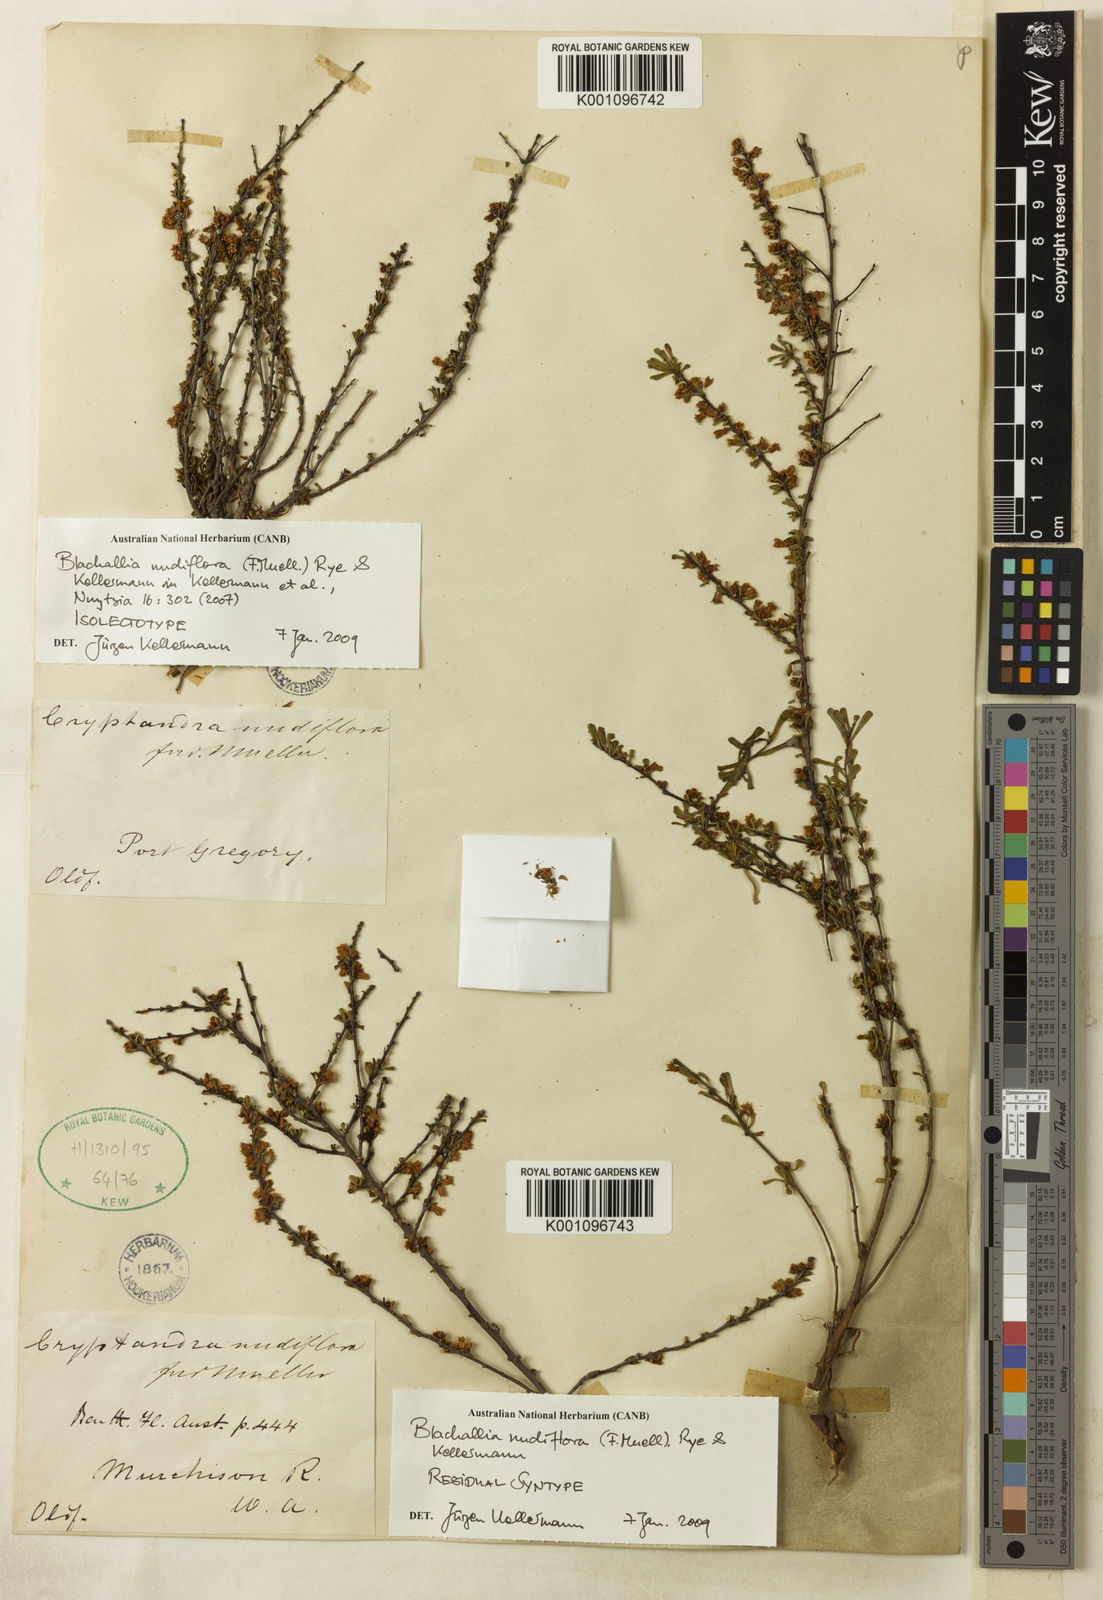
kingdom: Plantae
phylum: Tracheophyta
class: Magnoliopsida
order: Rosales
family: Rhamnaceae
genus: Blackallia
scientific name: Blackallia nudiflora
